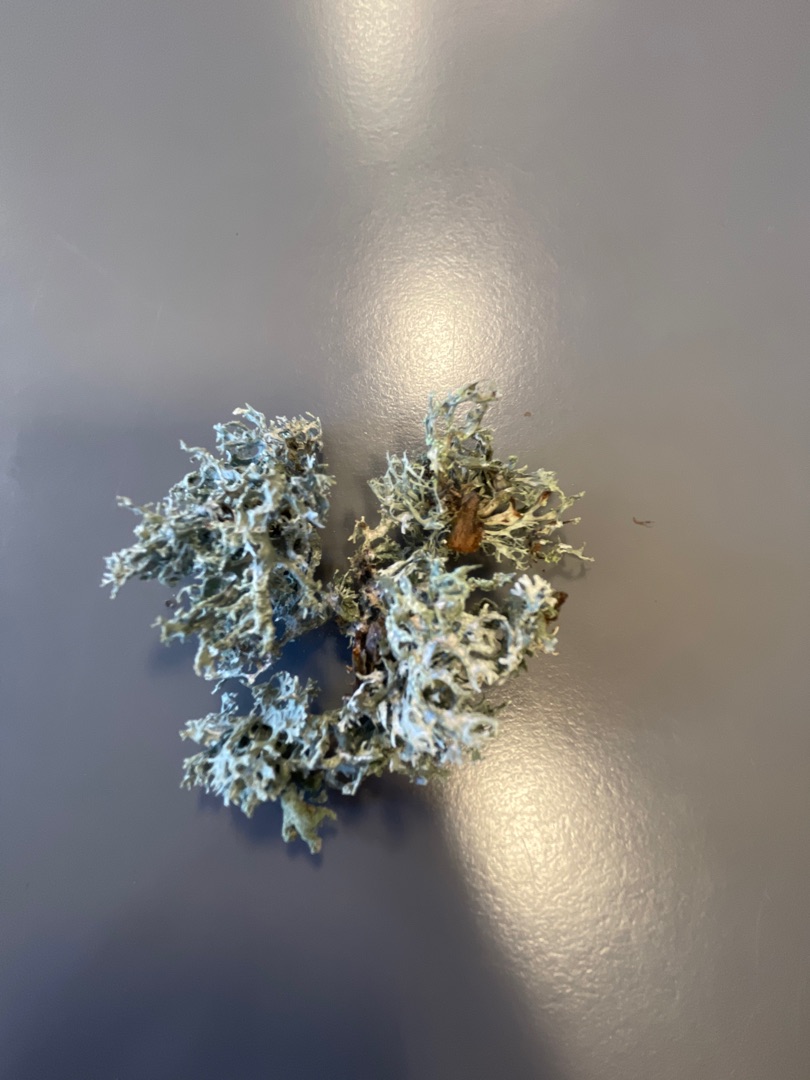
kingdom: Fungi
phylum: Ascomycota
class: Lecanoromycetes
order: Lecanorales
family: Parmeliaceae
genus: Evernia
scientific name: Evernia prunastri
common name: Almindelig slåenlav
